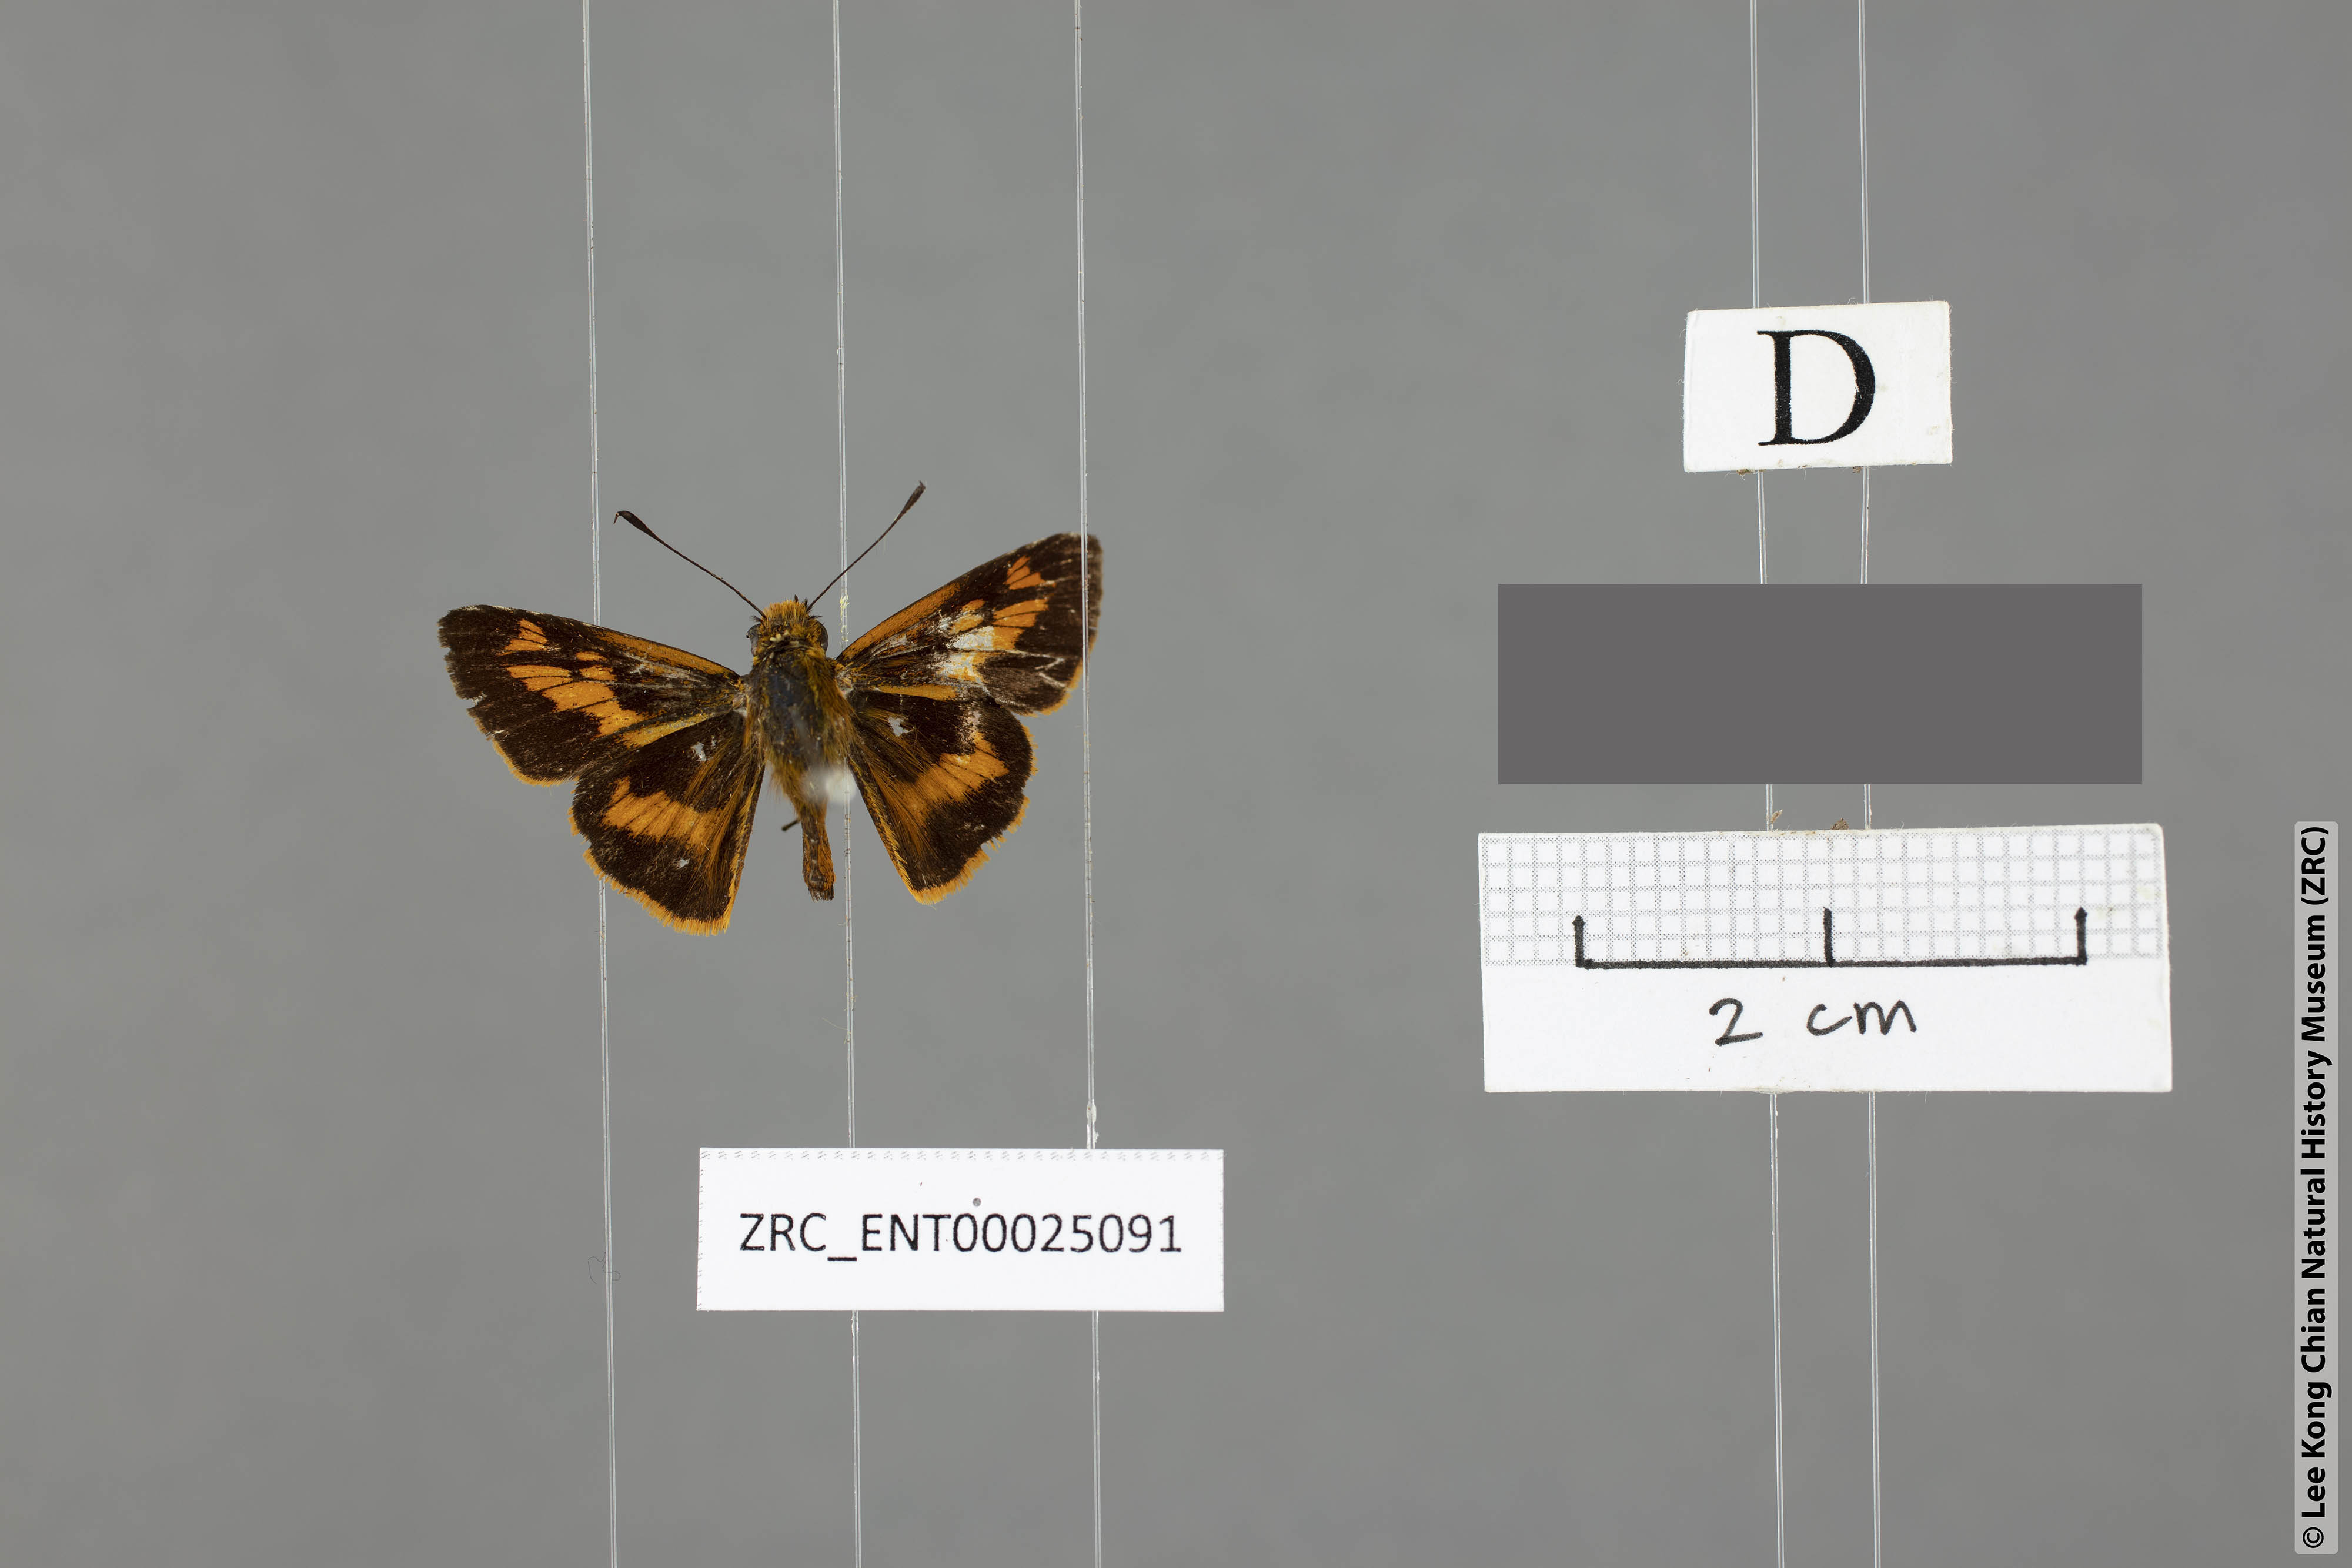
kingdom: Animalia
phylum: Arthropoda
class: Insecta
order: Lepidoptera
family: Hesperiidae
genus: Oriens
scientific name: Oriens goloides
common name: Smaller dartlet
